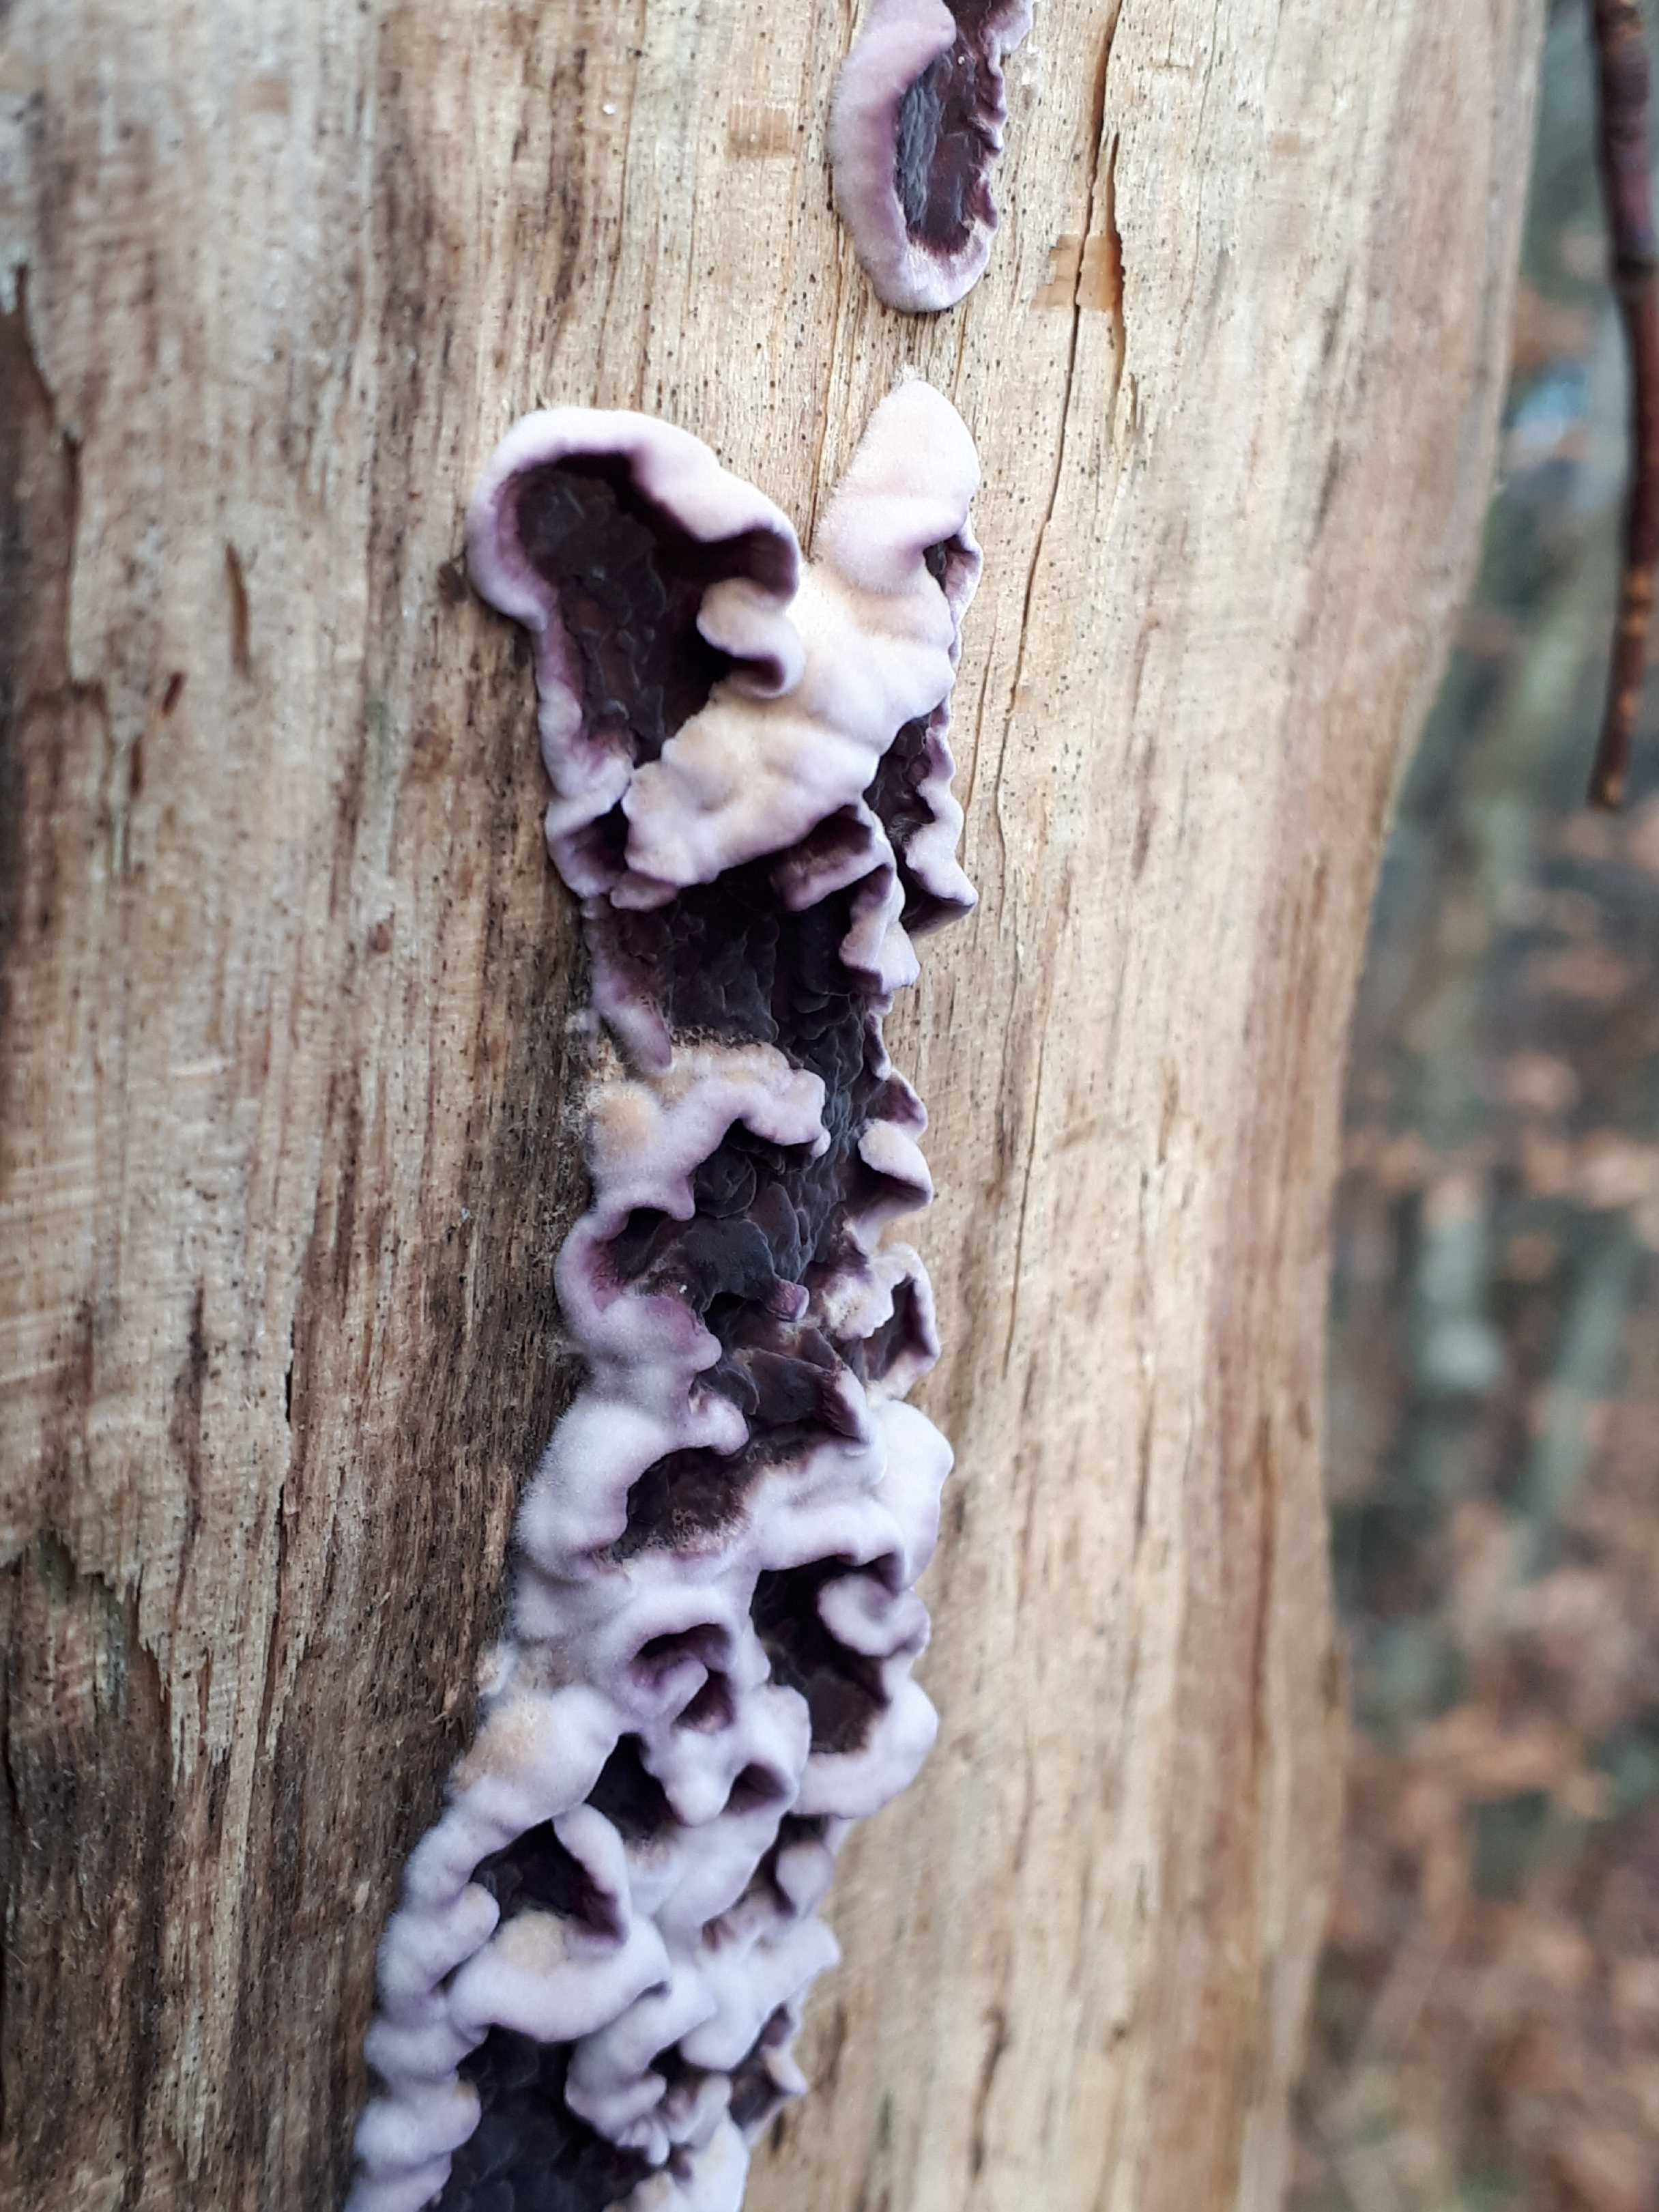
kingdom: Fungi
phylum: Basidiomycota
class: Agaricomycetes
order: Agaricales
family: Cyphellaceae
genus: Chondrostereum
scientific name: Chondrostereum purpureum
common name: purpurlædersvamp
